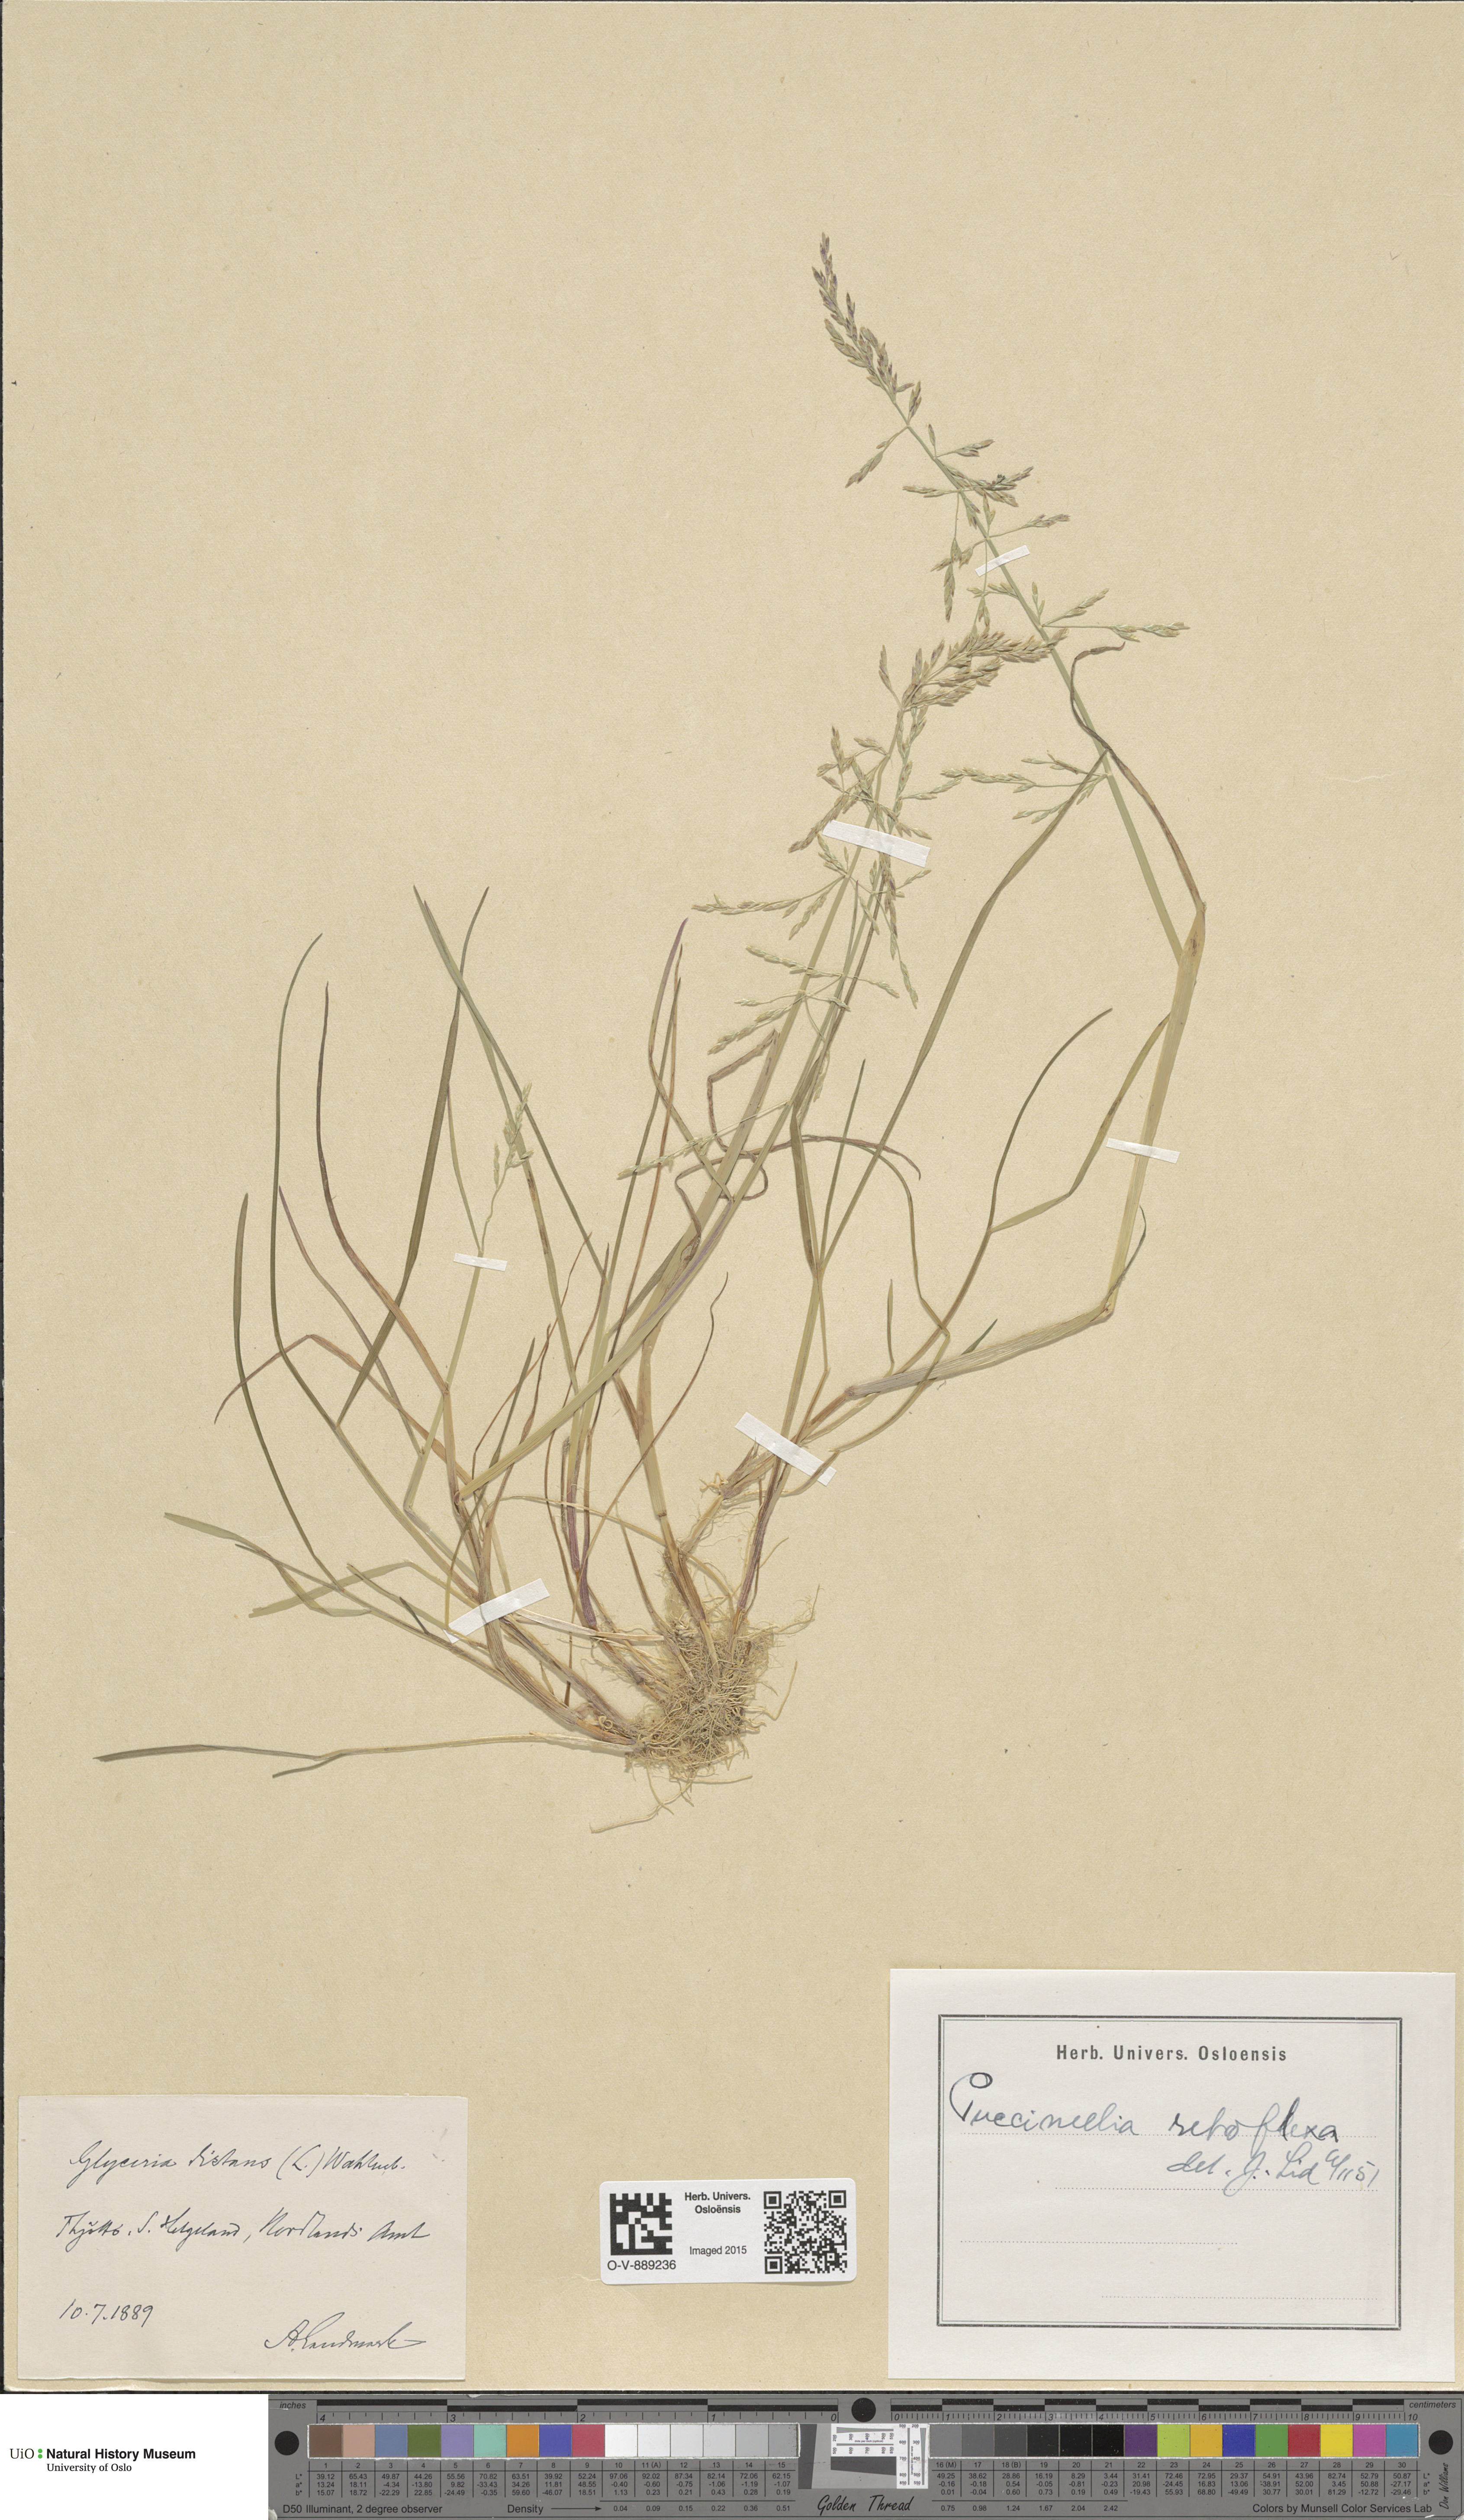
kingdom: Plantae
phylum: Tracheophyta
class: Liliopsida
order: Poales
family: Poaceae
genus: Puccinellia
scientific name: Puccinellia distans
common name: Weeping alkaligrass
